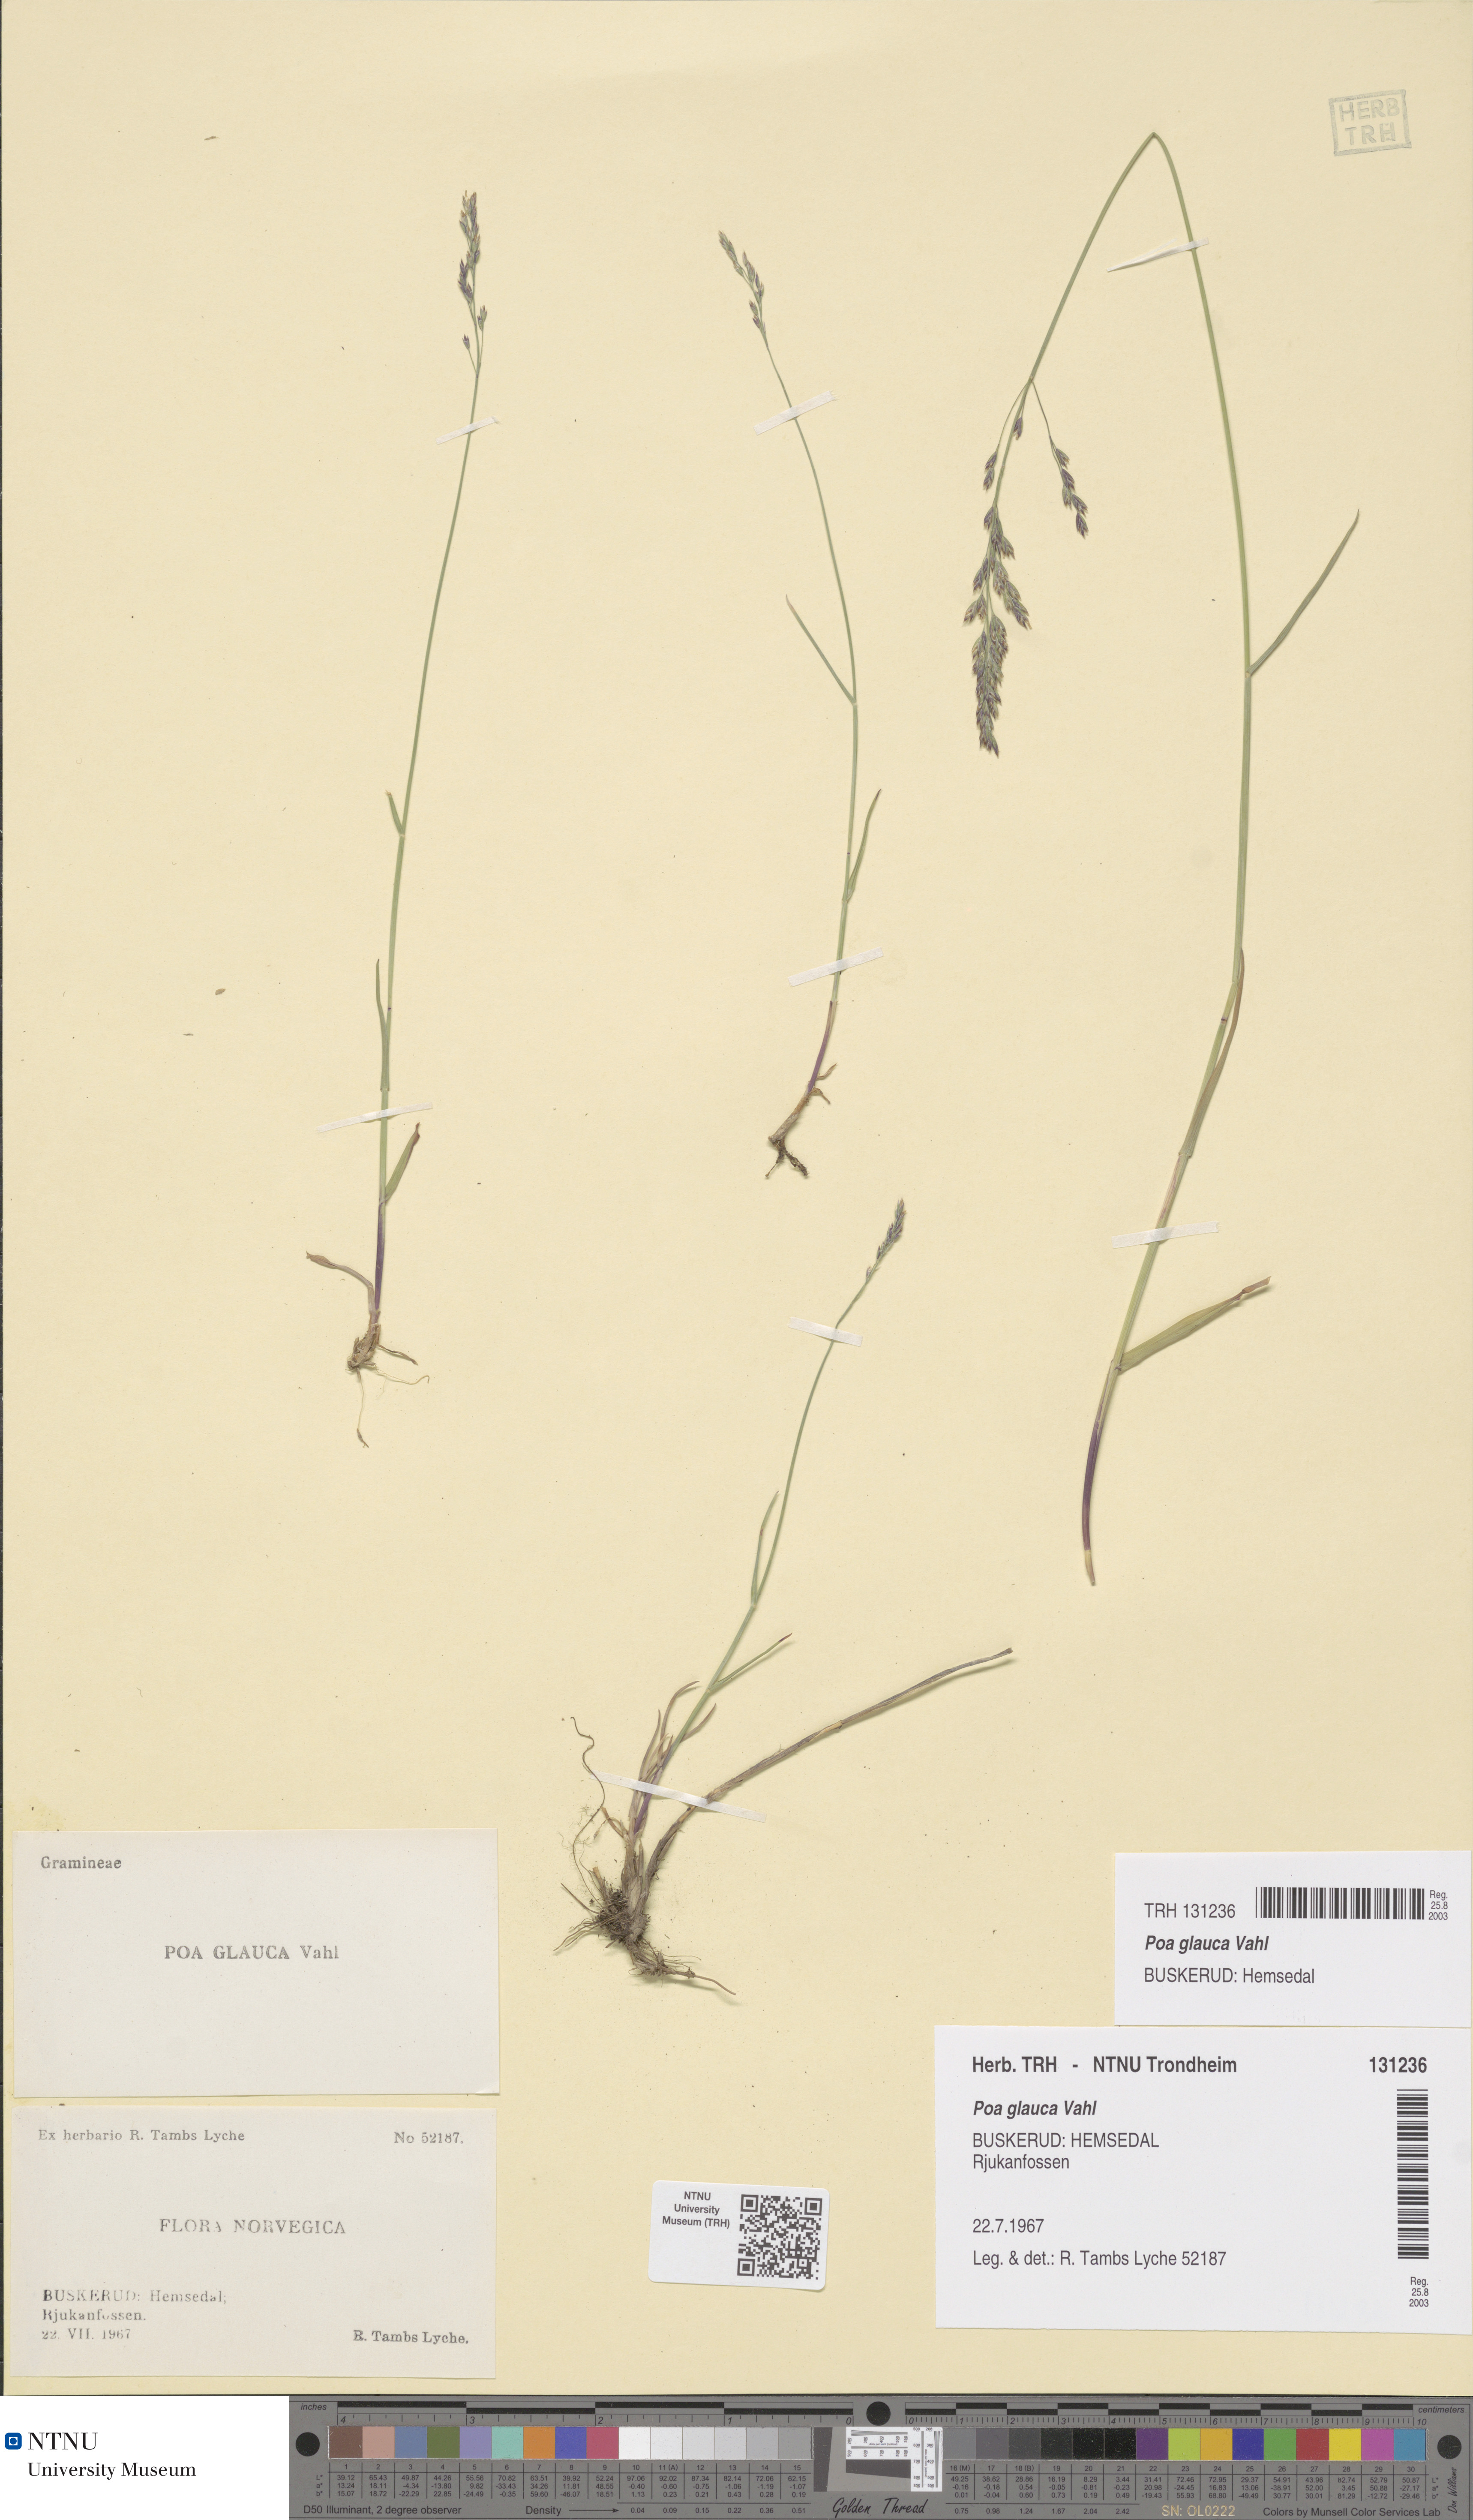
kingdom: Plantae
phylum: Tracheophyta
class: Liliopsida
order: Poales
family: Poaceae
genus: Poa
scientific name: Poa glauca
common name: Glaucous bluegrass
